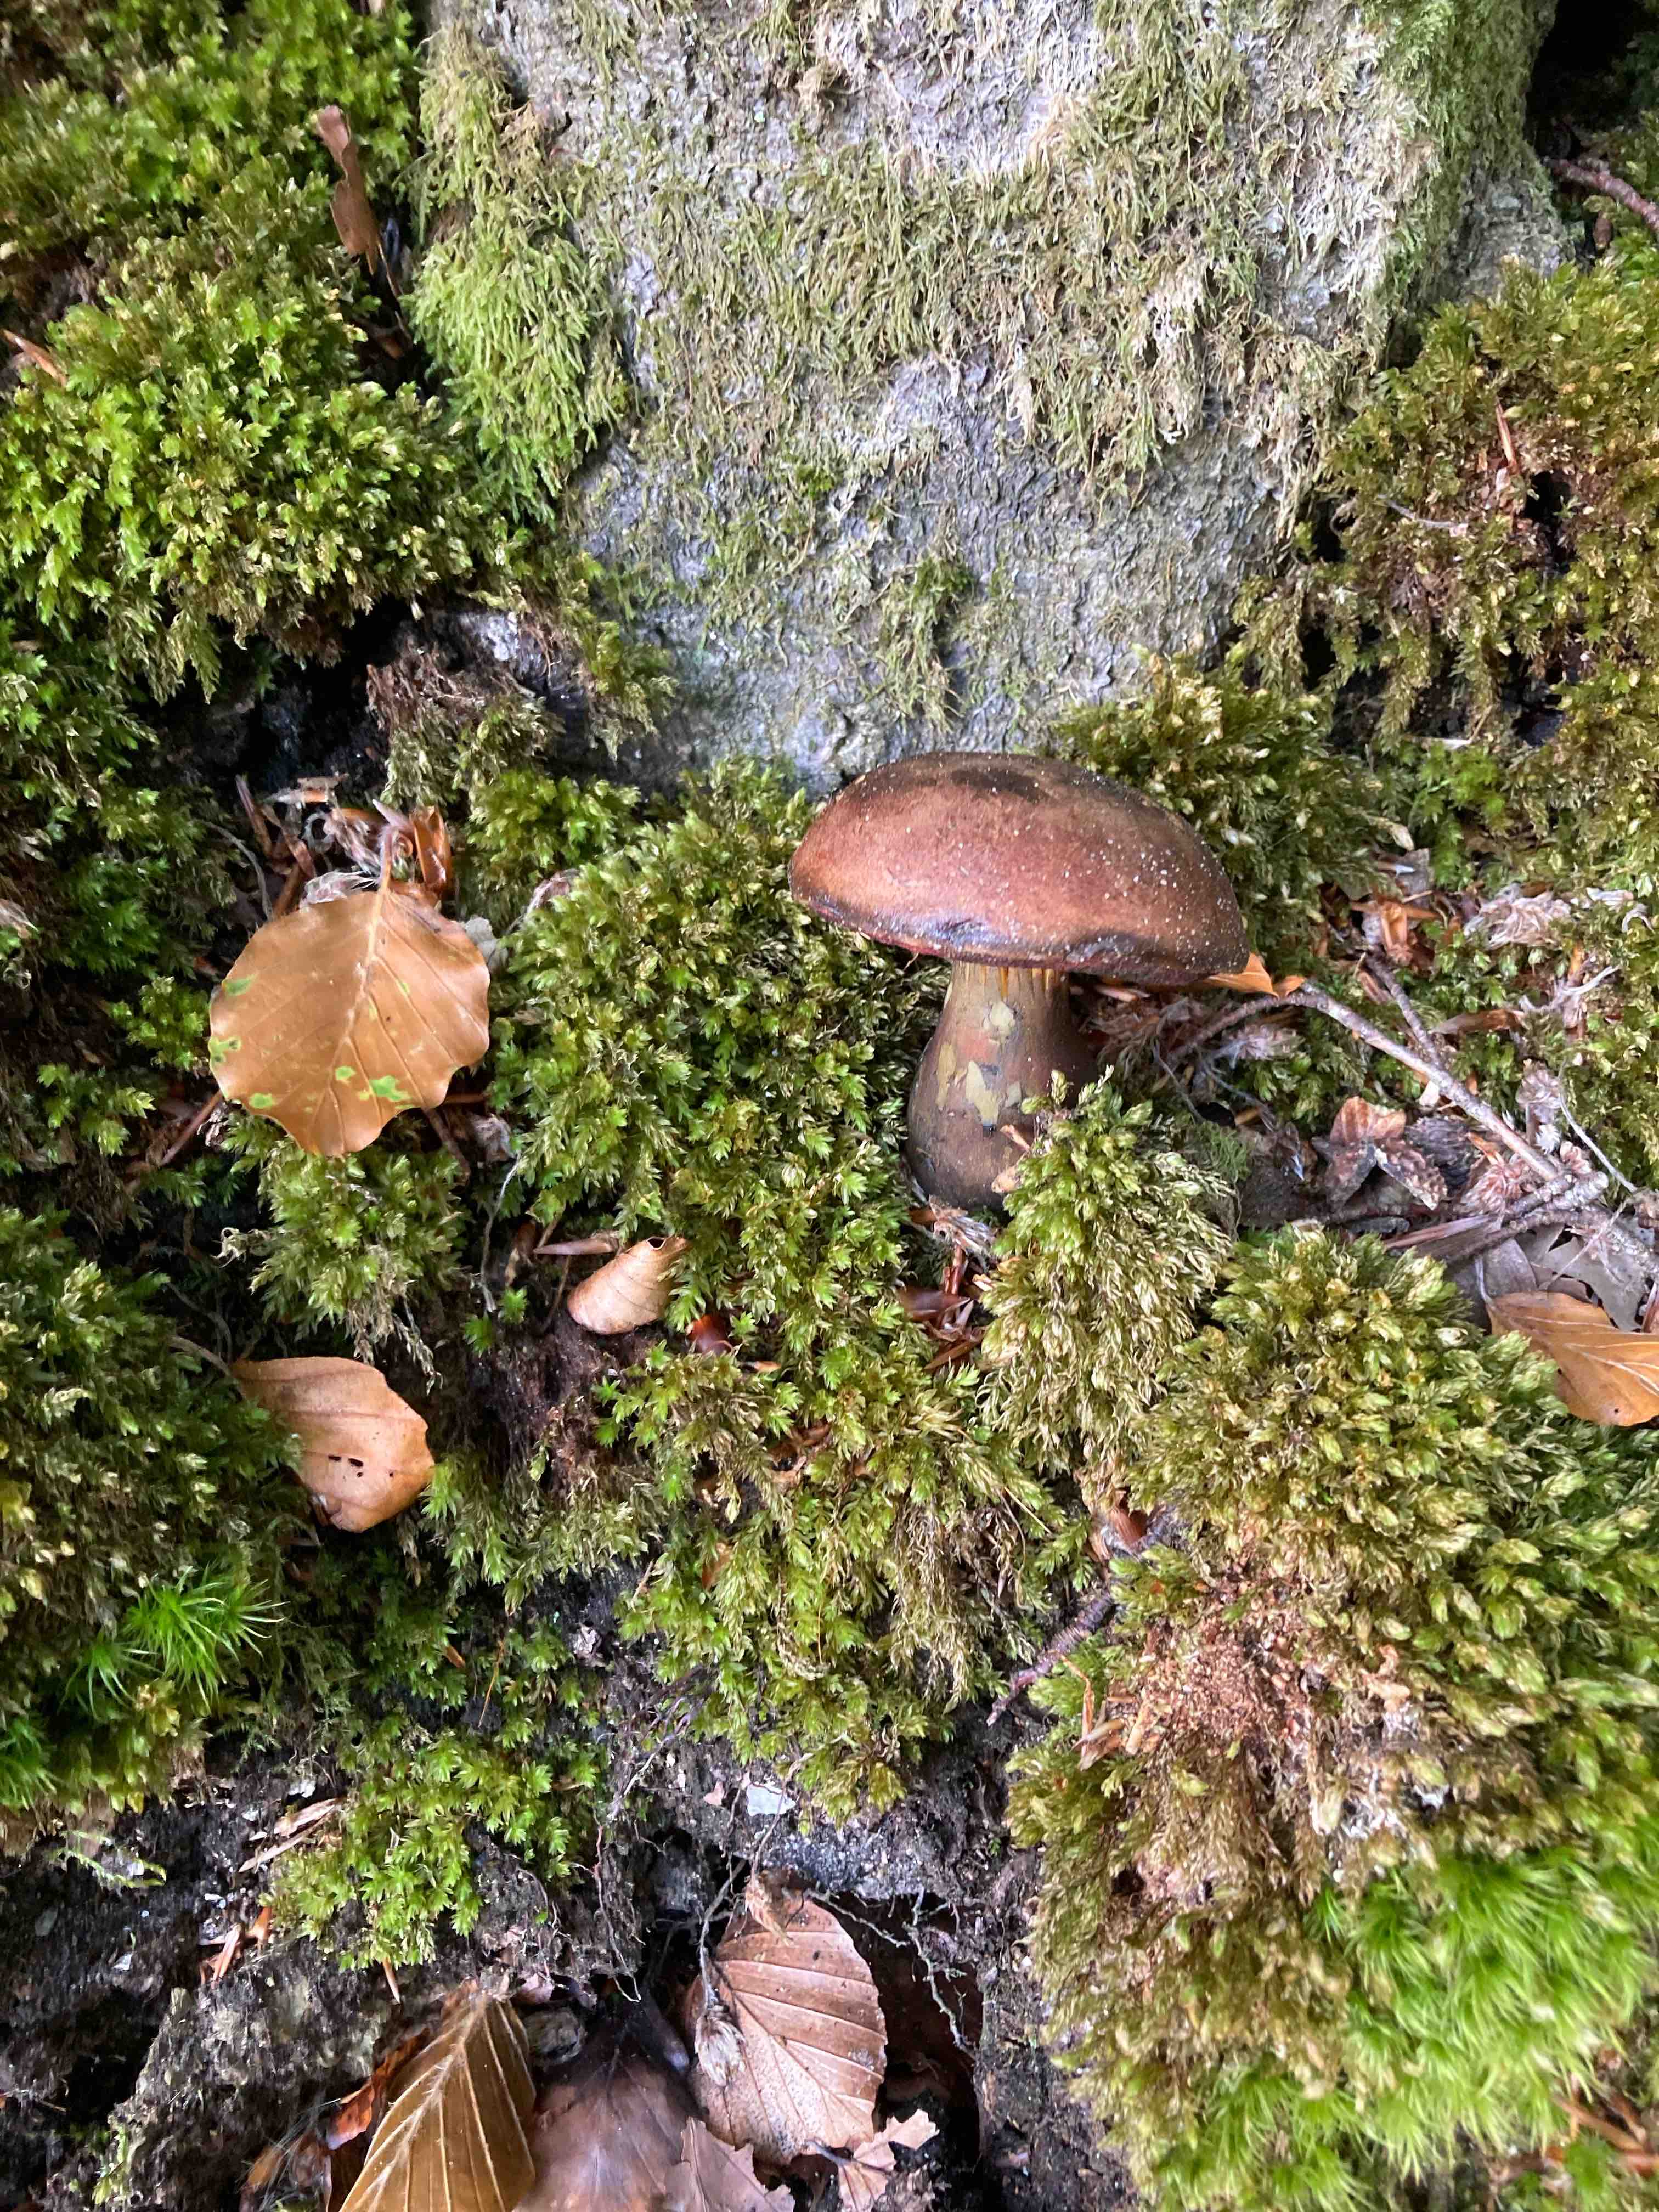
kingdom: Fungi
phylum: Basidiomycota
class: Agaricomycetes
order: Boletales
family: Boletaceae
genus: Neoboletus
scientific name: Neoboletus erythropus
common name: punktstokket indigorørhat
